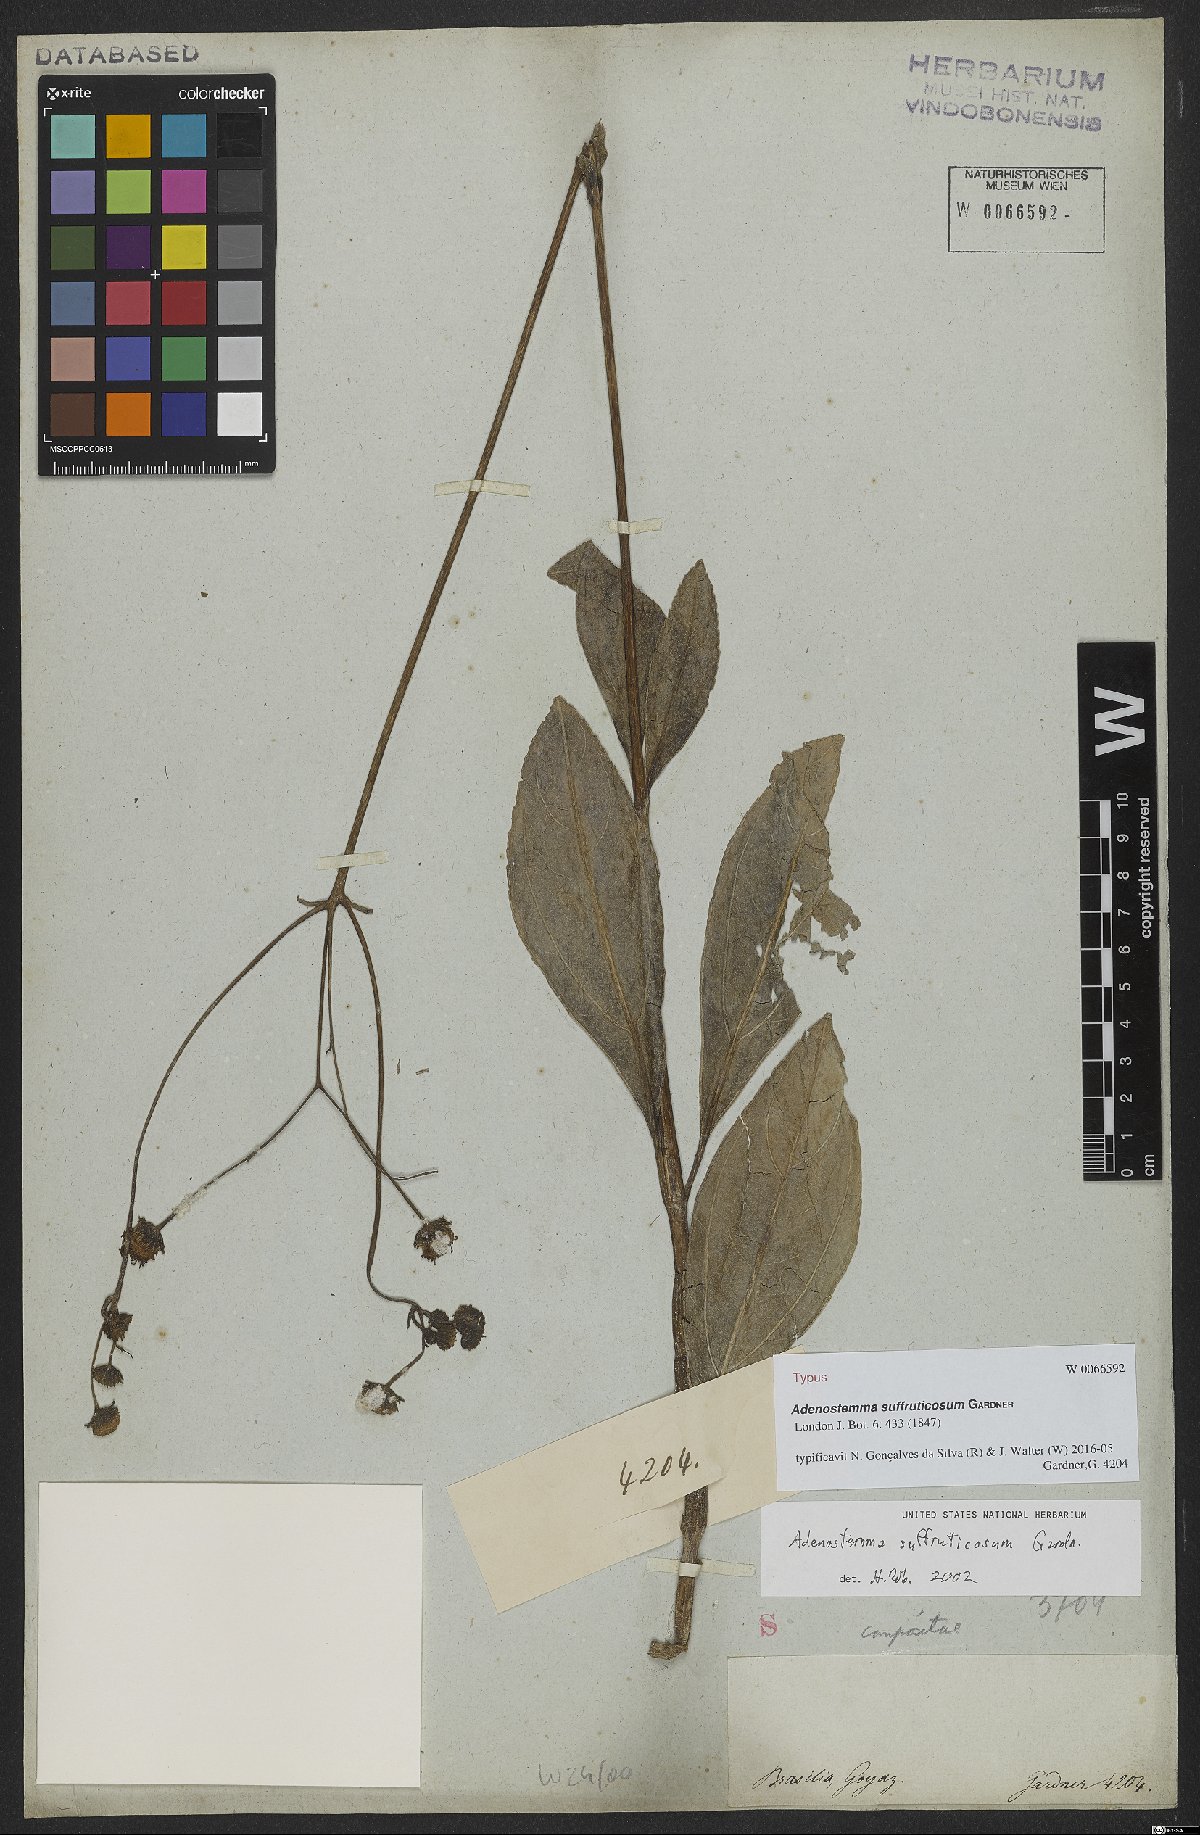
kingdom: Plantae
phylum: Tracheophyta
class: Magnoliopsida
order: Asterales
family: Asteraceae
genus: Adenostemma
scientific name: Adenostemma suffruticosum
